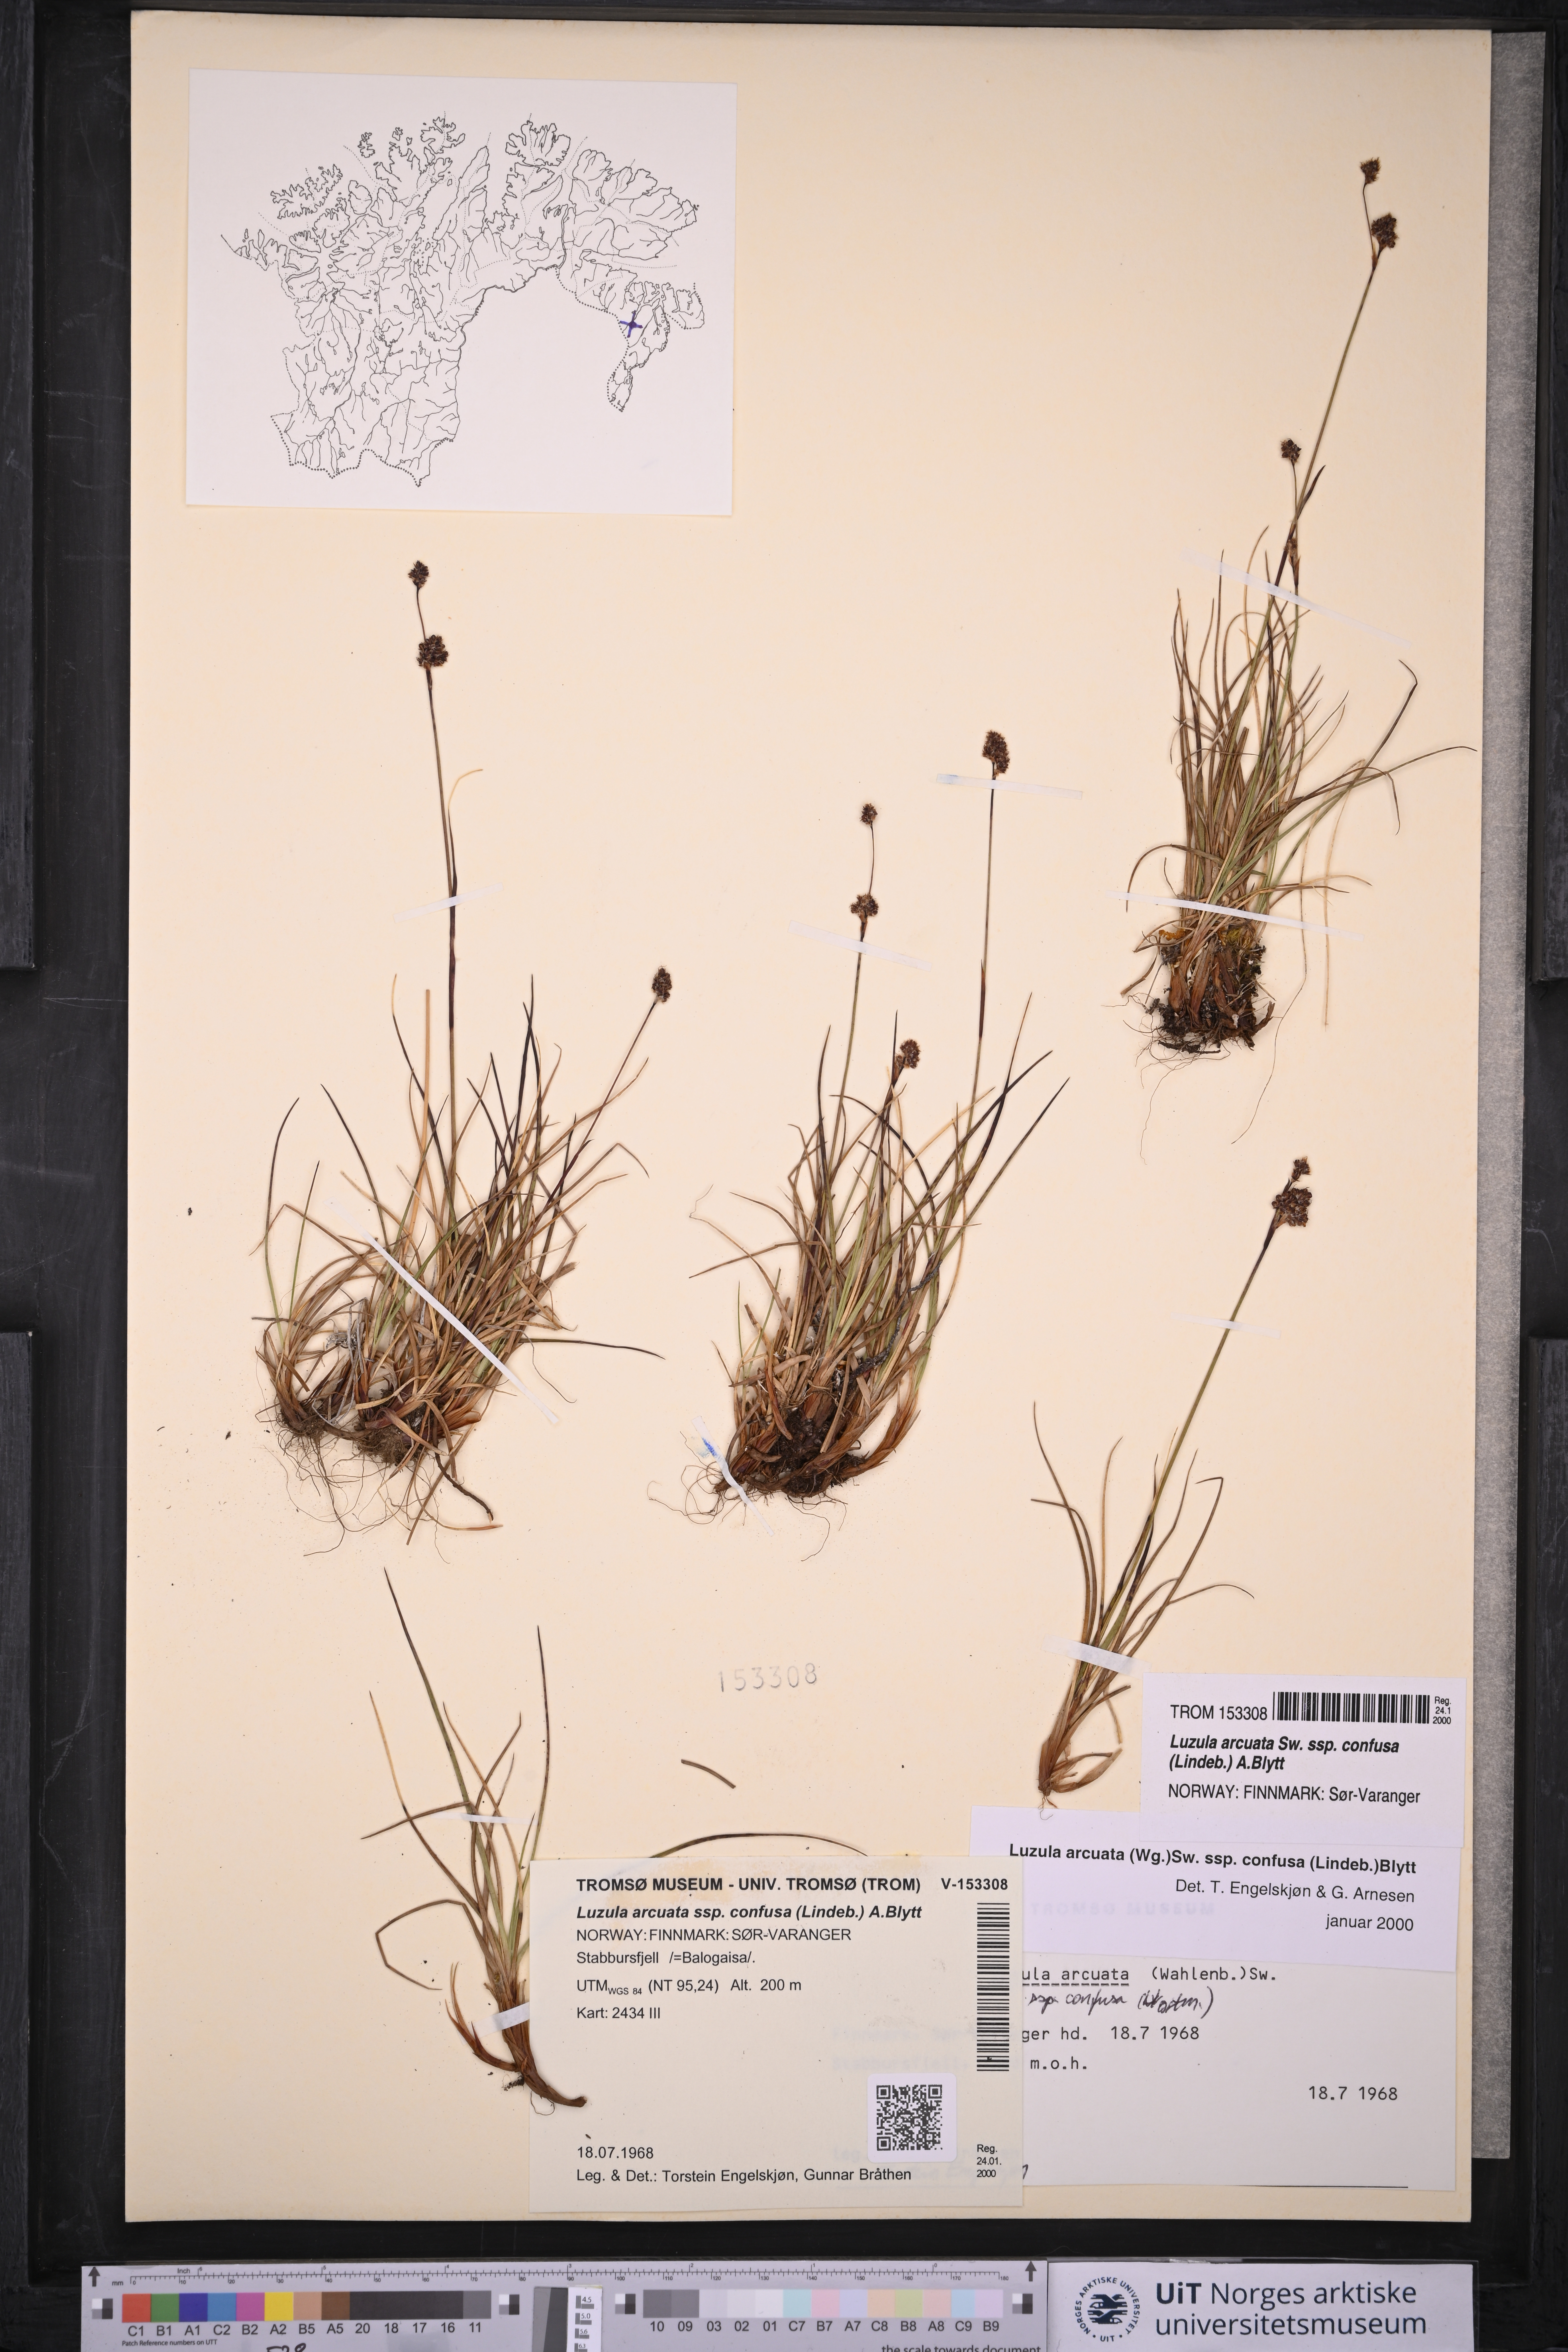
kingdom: Plantae
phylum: Tracheophyta
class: Liliopsida
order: Poales
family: Juncaceae
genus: Luzula
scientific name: Luzula confusa
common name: Northern wood rush
